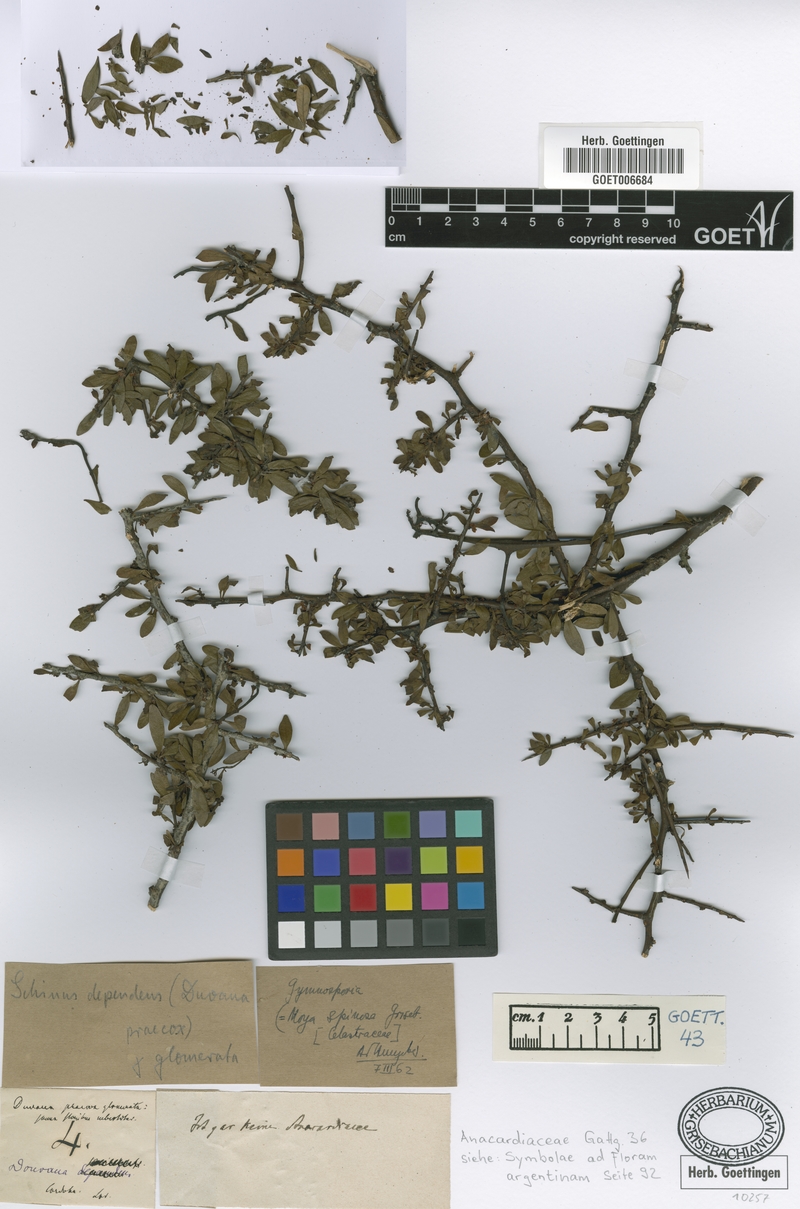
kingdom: Plantae
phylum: Tracheophyta
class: Magnoliopsida
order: Sapindales
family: Anacardiaceae
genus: Schinus
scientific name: Schinus fasciculata
